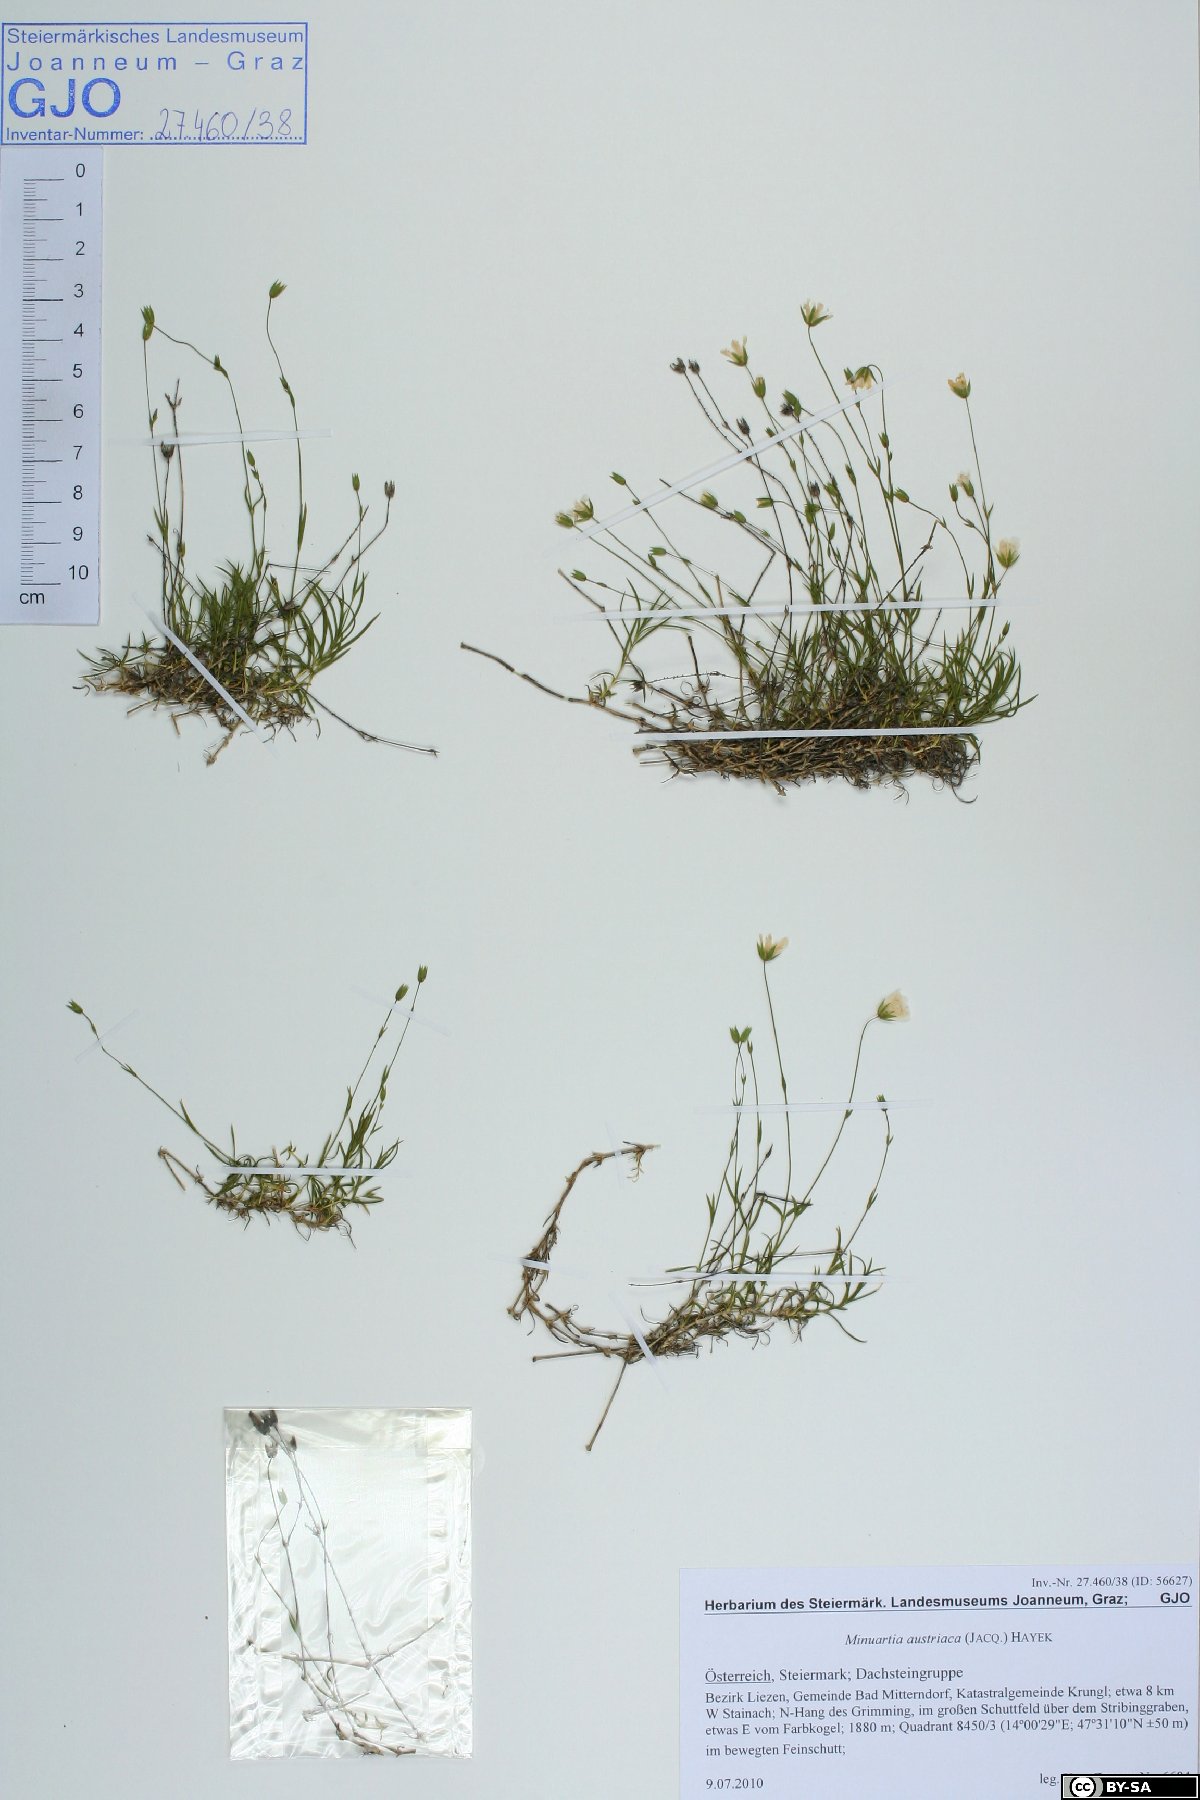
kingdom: Plantae
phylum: Tracheophyta
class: Magnoliopsida
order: Caryophyllales
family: Caryophyllaceae
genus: Sabulina
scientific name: Sabulina austriaca
